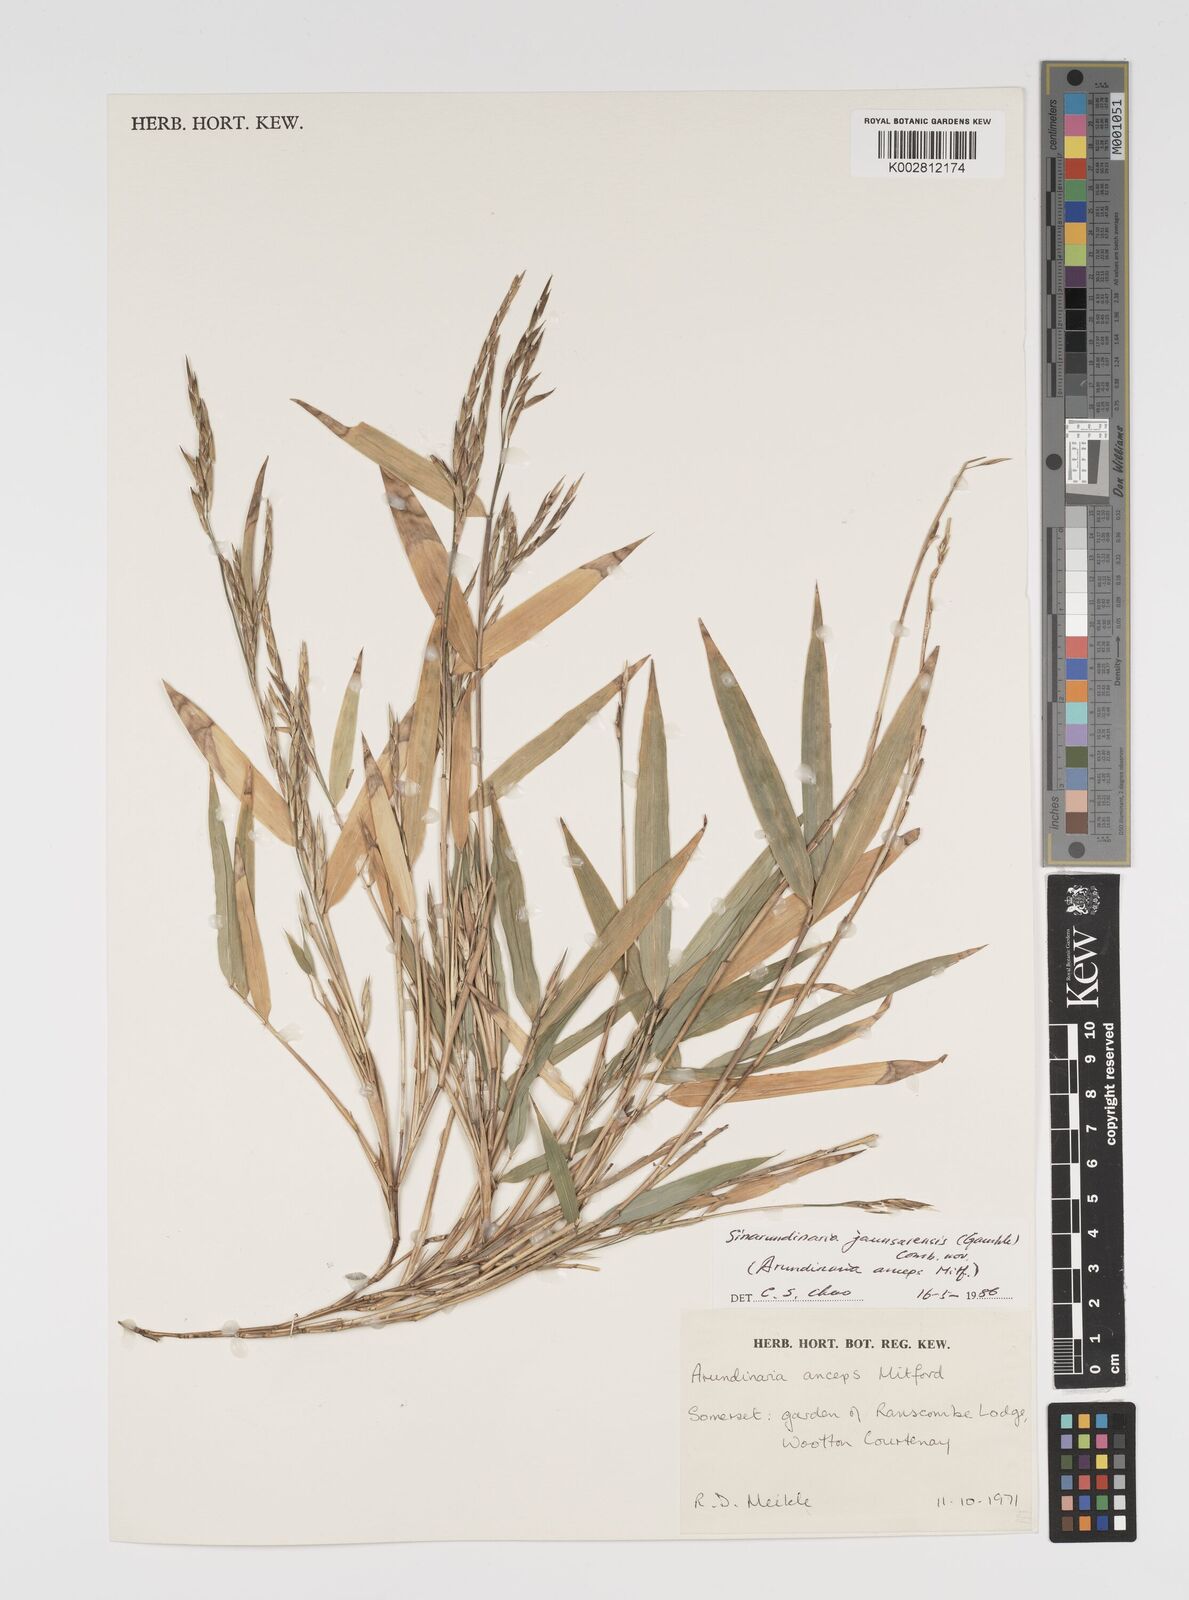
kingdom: Plantae
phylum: Tracheophyta
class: Liliopsida
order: Poales
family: Poaceae
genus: Yushania
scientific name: Yushania anceps
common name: Indian fountain-bamboo
